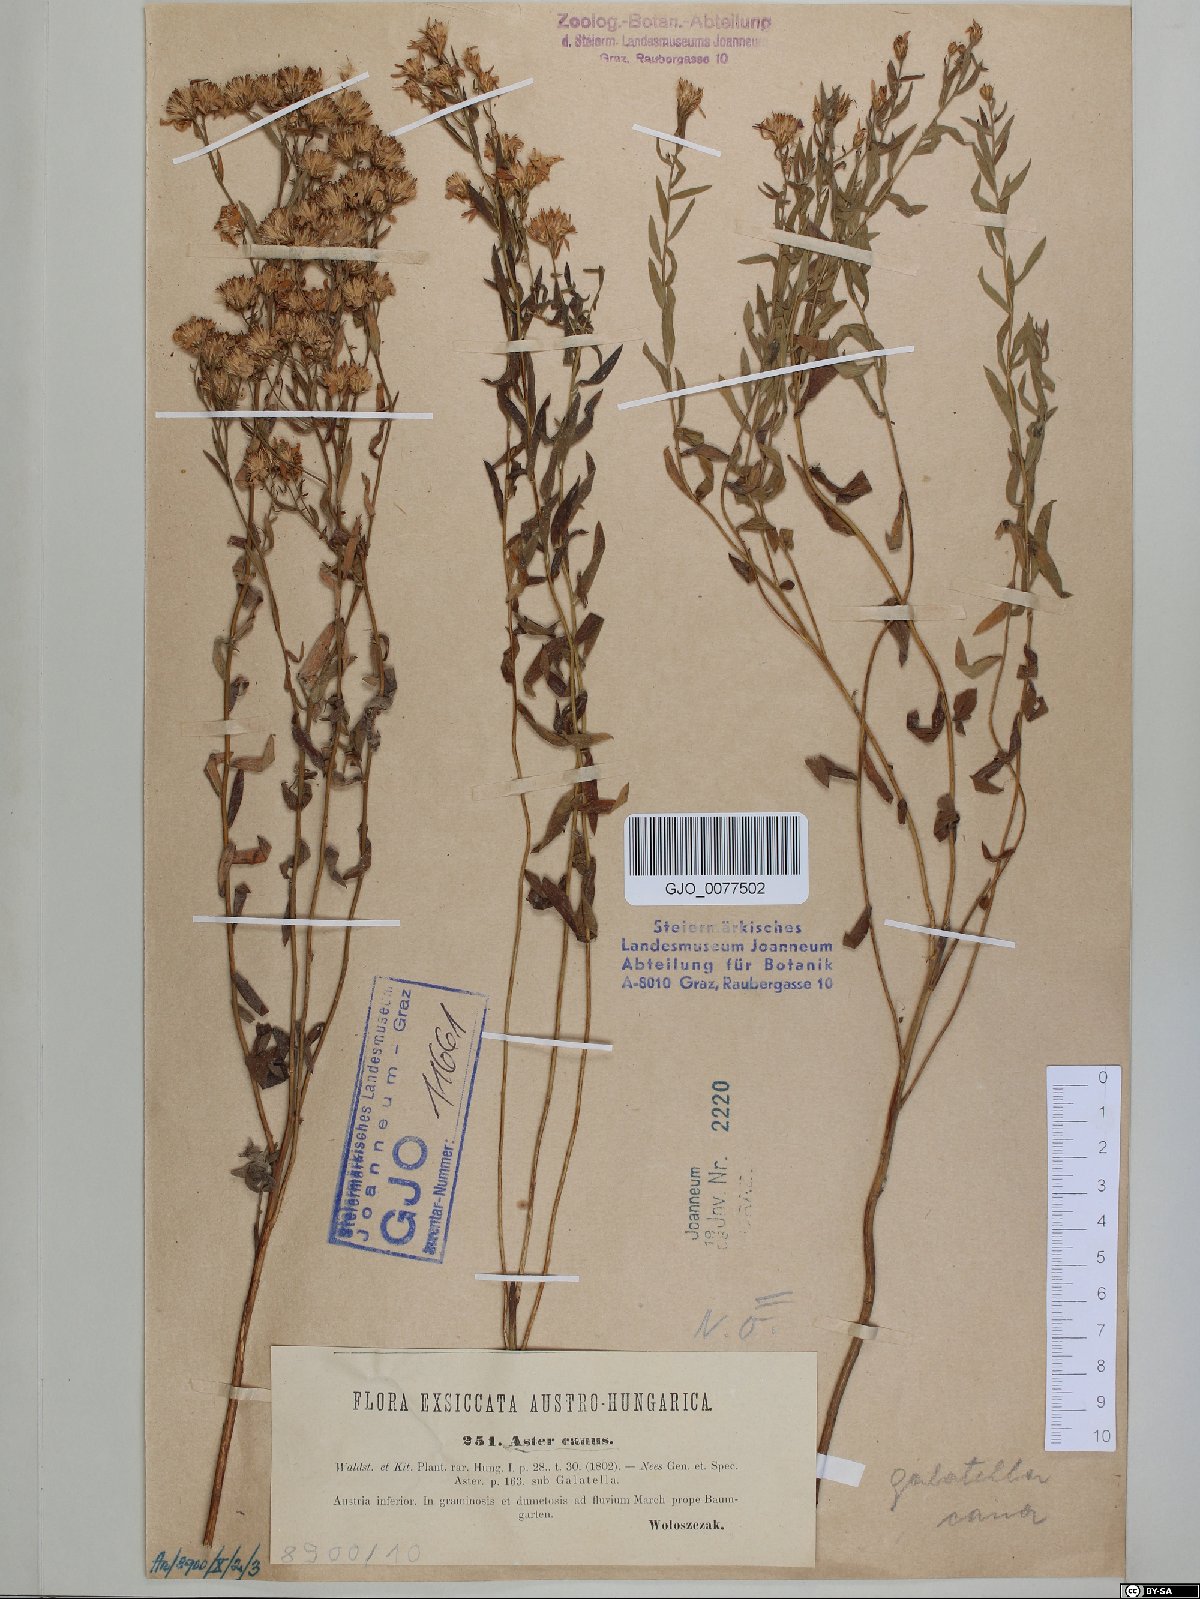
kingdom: Plantae
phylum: Tracheophyta
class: Magnoliopsida
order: Asterales
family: Asteraceae
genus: Galatella
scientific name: Galatella cana
